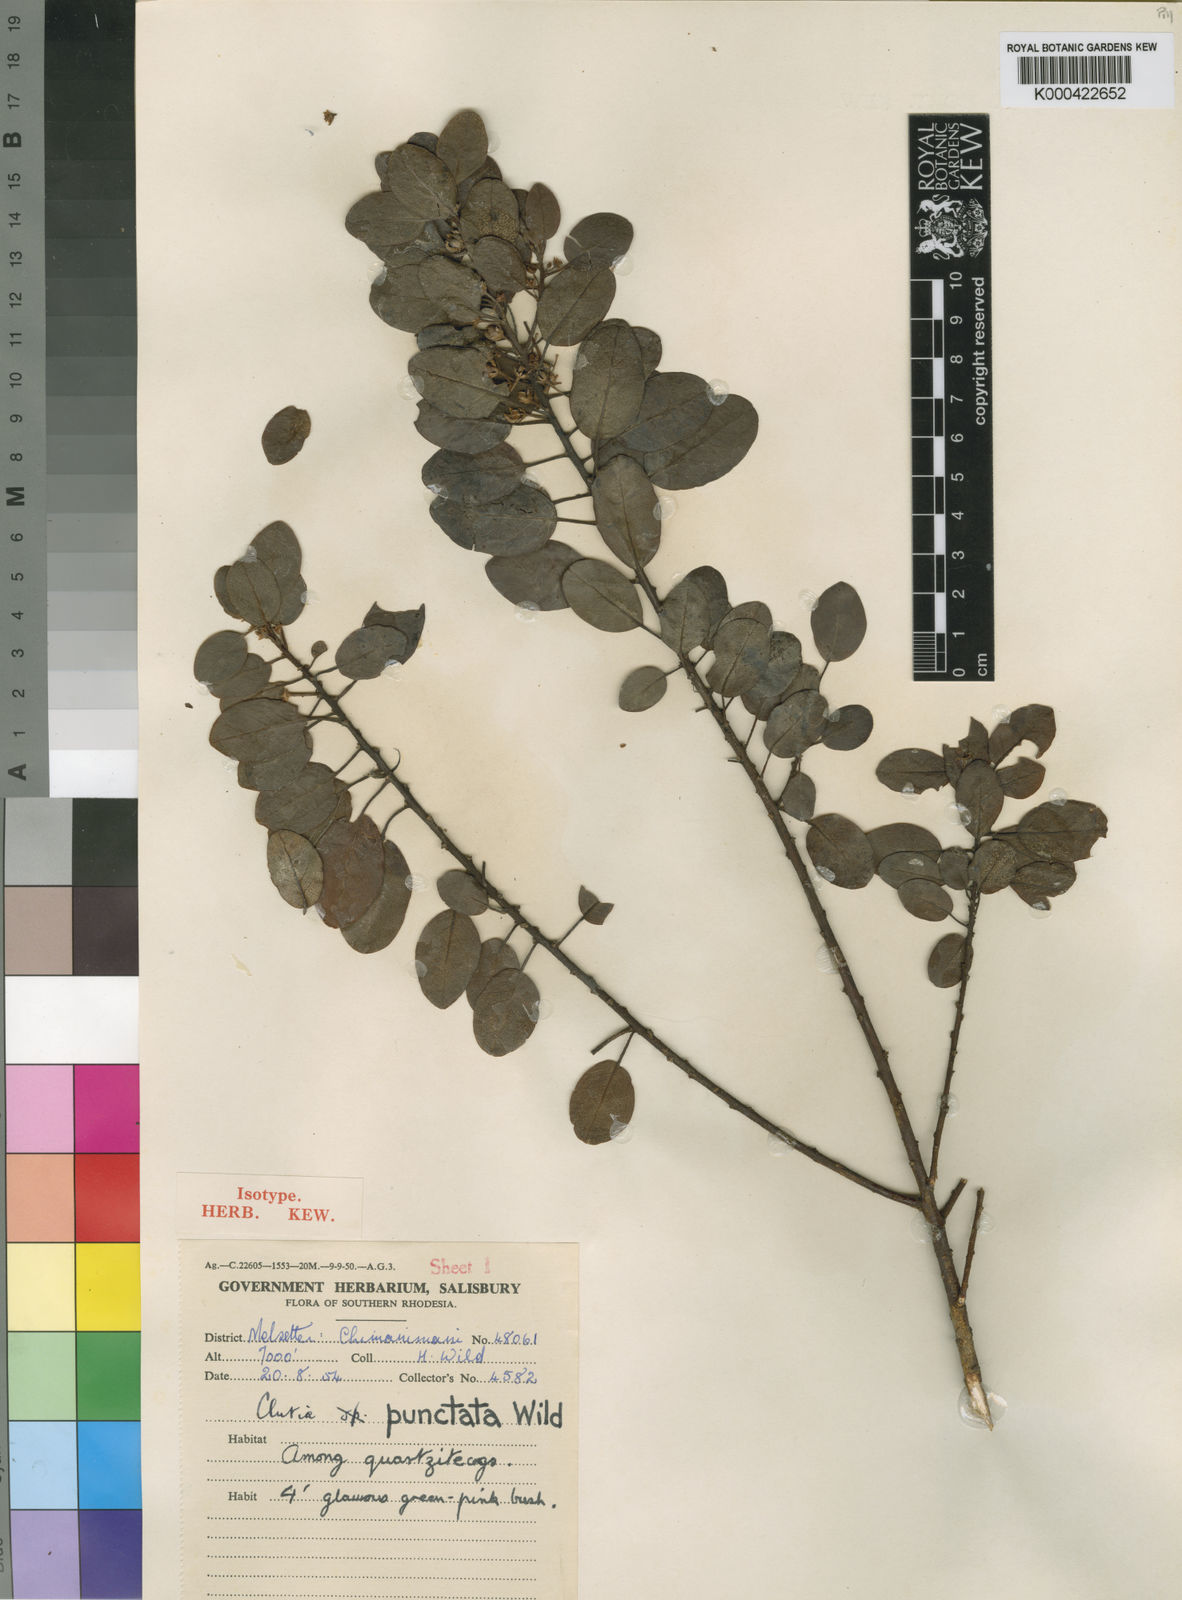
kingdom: Plantae
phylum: Tracheophyta
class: Magnoliopsida
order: Malpighiales
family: Peraceae
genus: Clutia
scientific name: Clutia punctata
